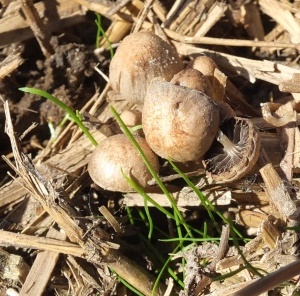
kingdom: Fungi
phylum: Basidiomycota
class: Agaricomycetes
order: Agaricales
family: Psathyrellaceae
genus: Psathyrella
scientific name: Psathyrella potteri
